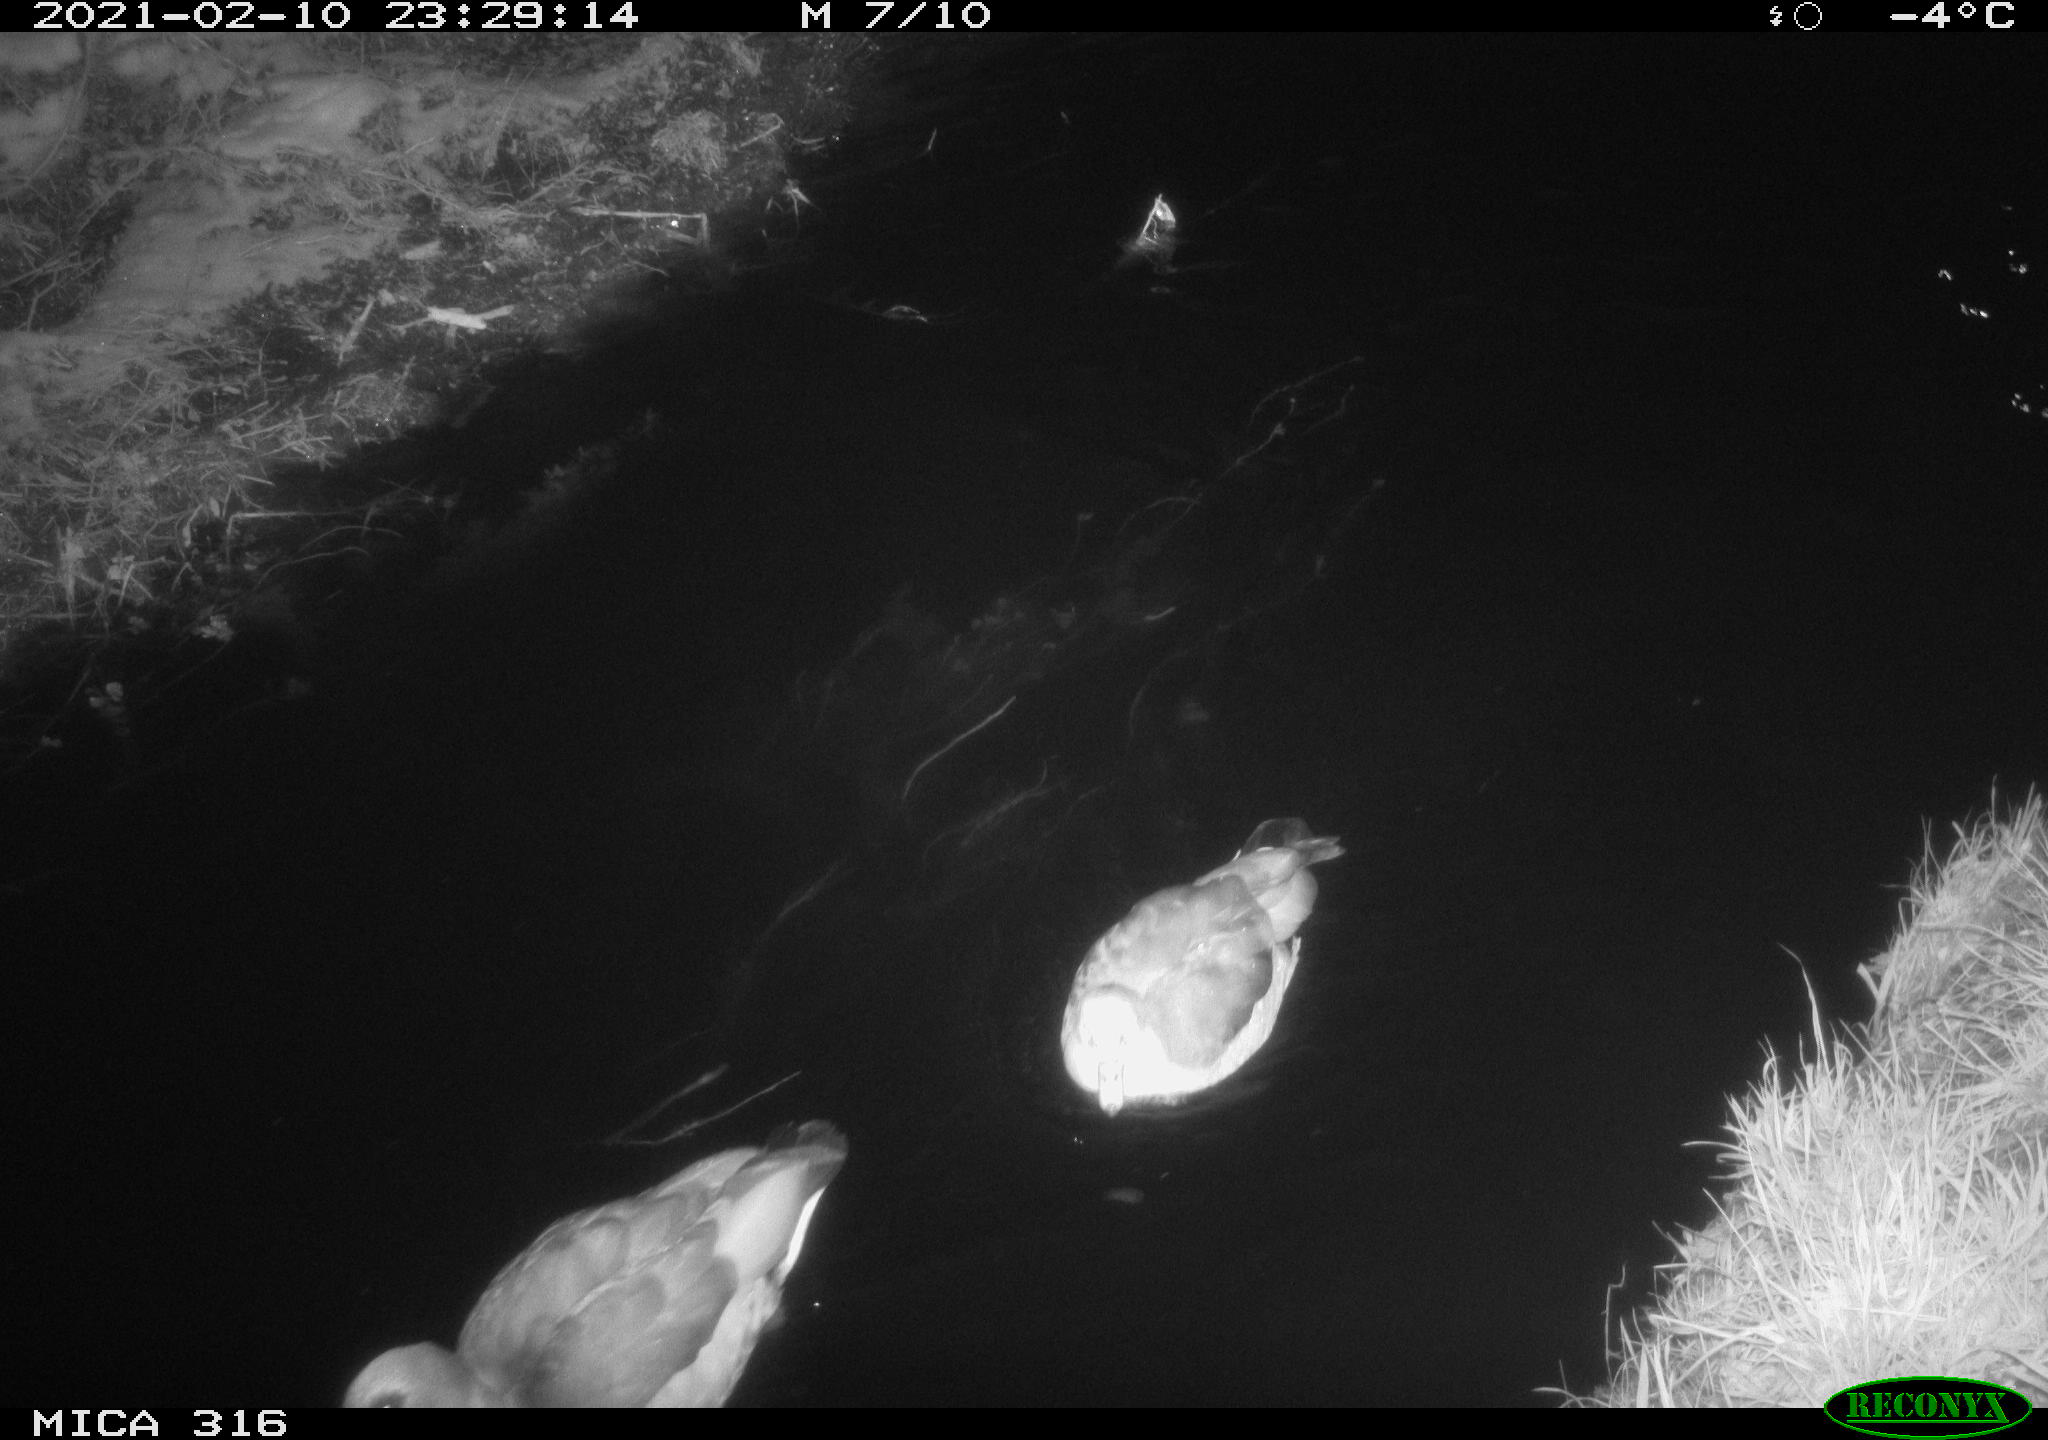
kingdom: Animalia
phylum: Chordata
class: Aves
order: Gruiformes
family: Rallidae
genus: Fulica
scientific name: Fulica atra
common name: Eurasian coot
